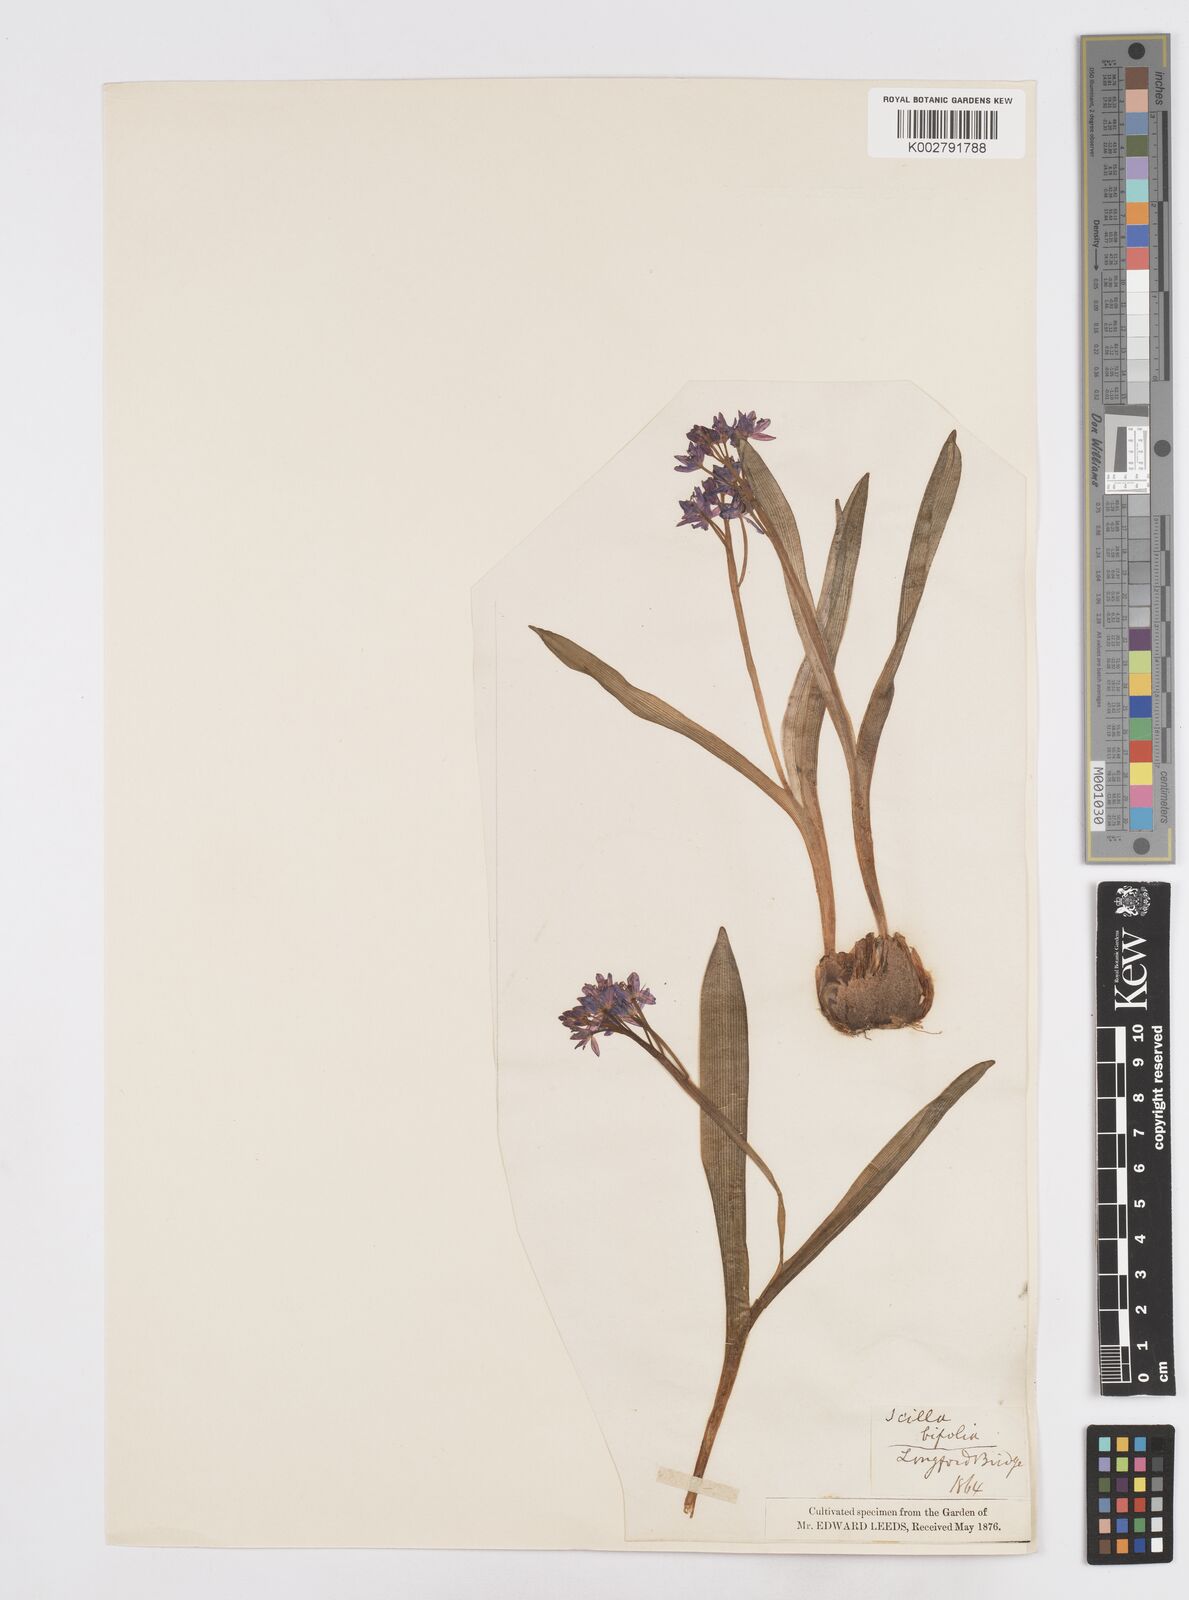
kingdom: Plantae
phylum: Tracheophyta
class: Liliopsida
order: Asparagales
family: Asparagaceae
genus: Scilla
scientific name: Scilla bifolia
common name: Alpine squill
